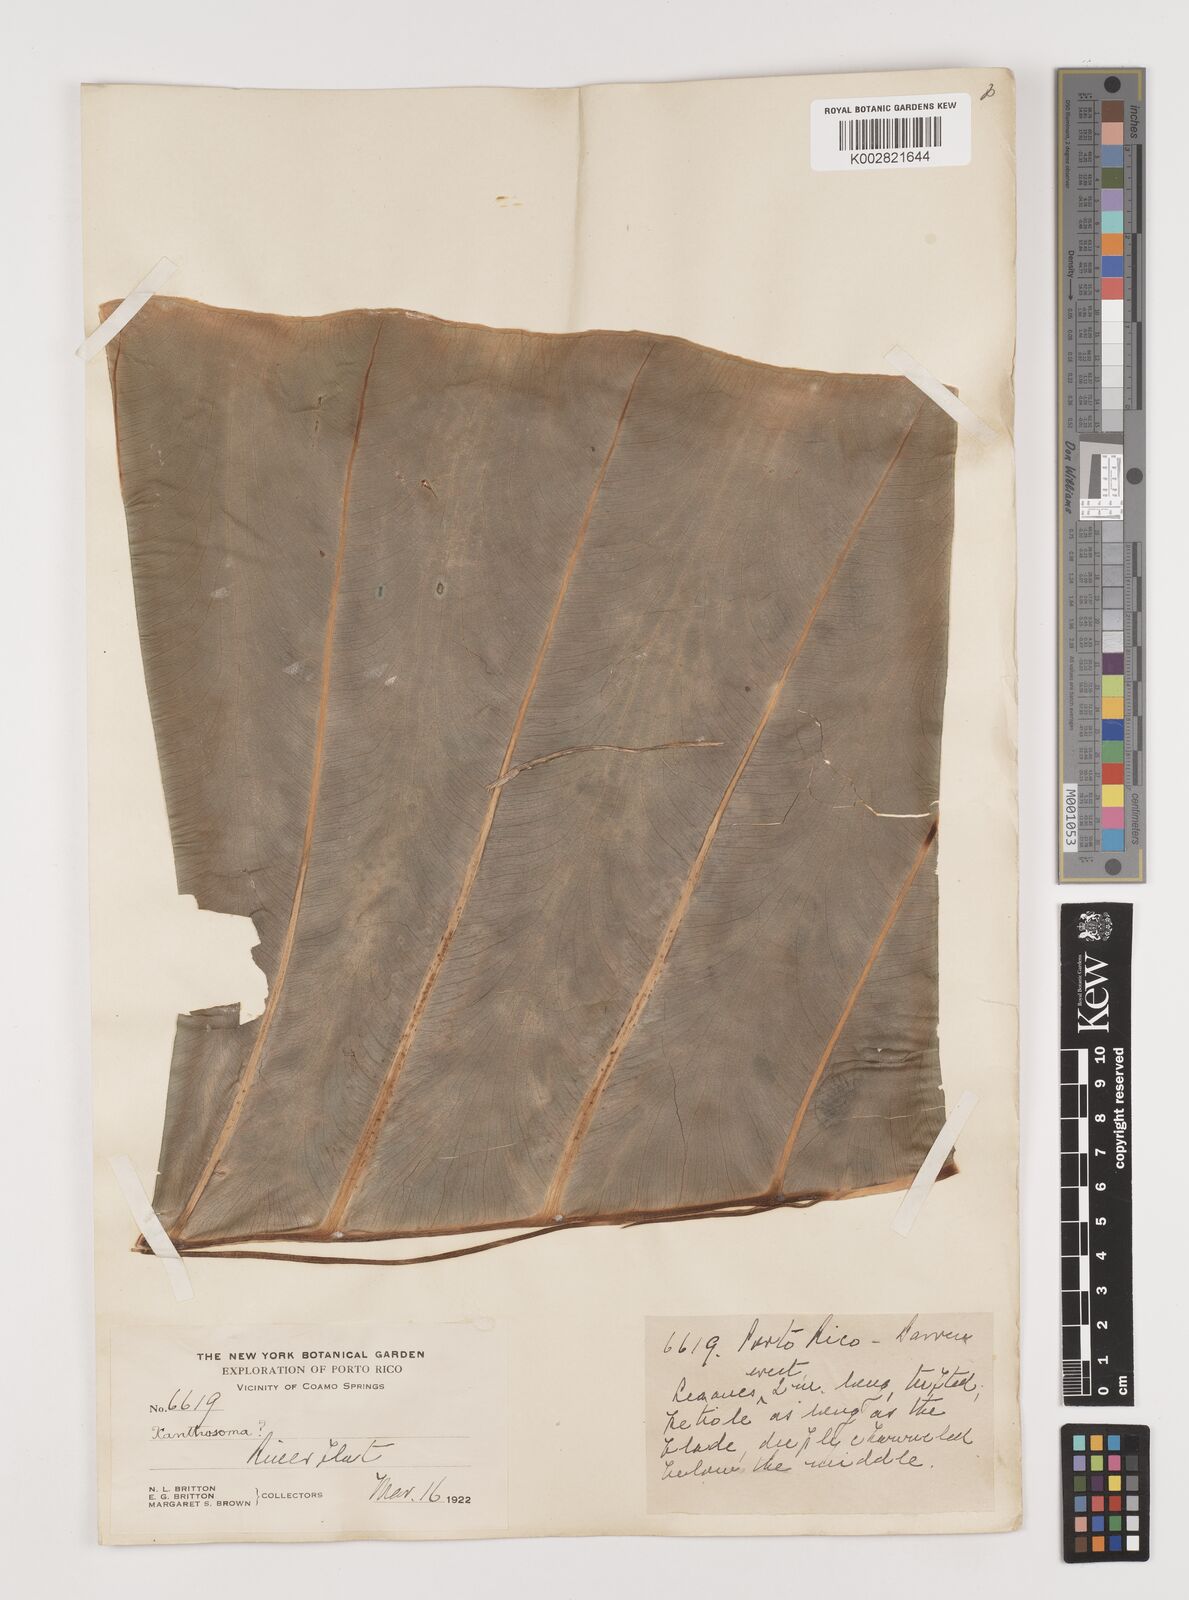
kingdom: Plantae
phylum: Tracheophyta
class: Liliopsida
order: Alismatales
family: Araceae
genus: Xanthosoma
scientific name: Xanthosoma
